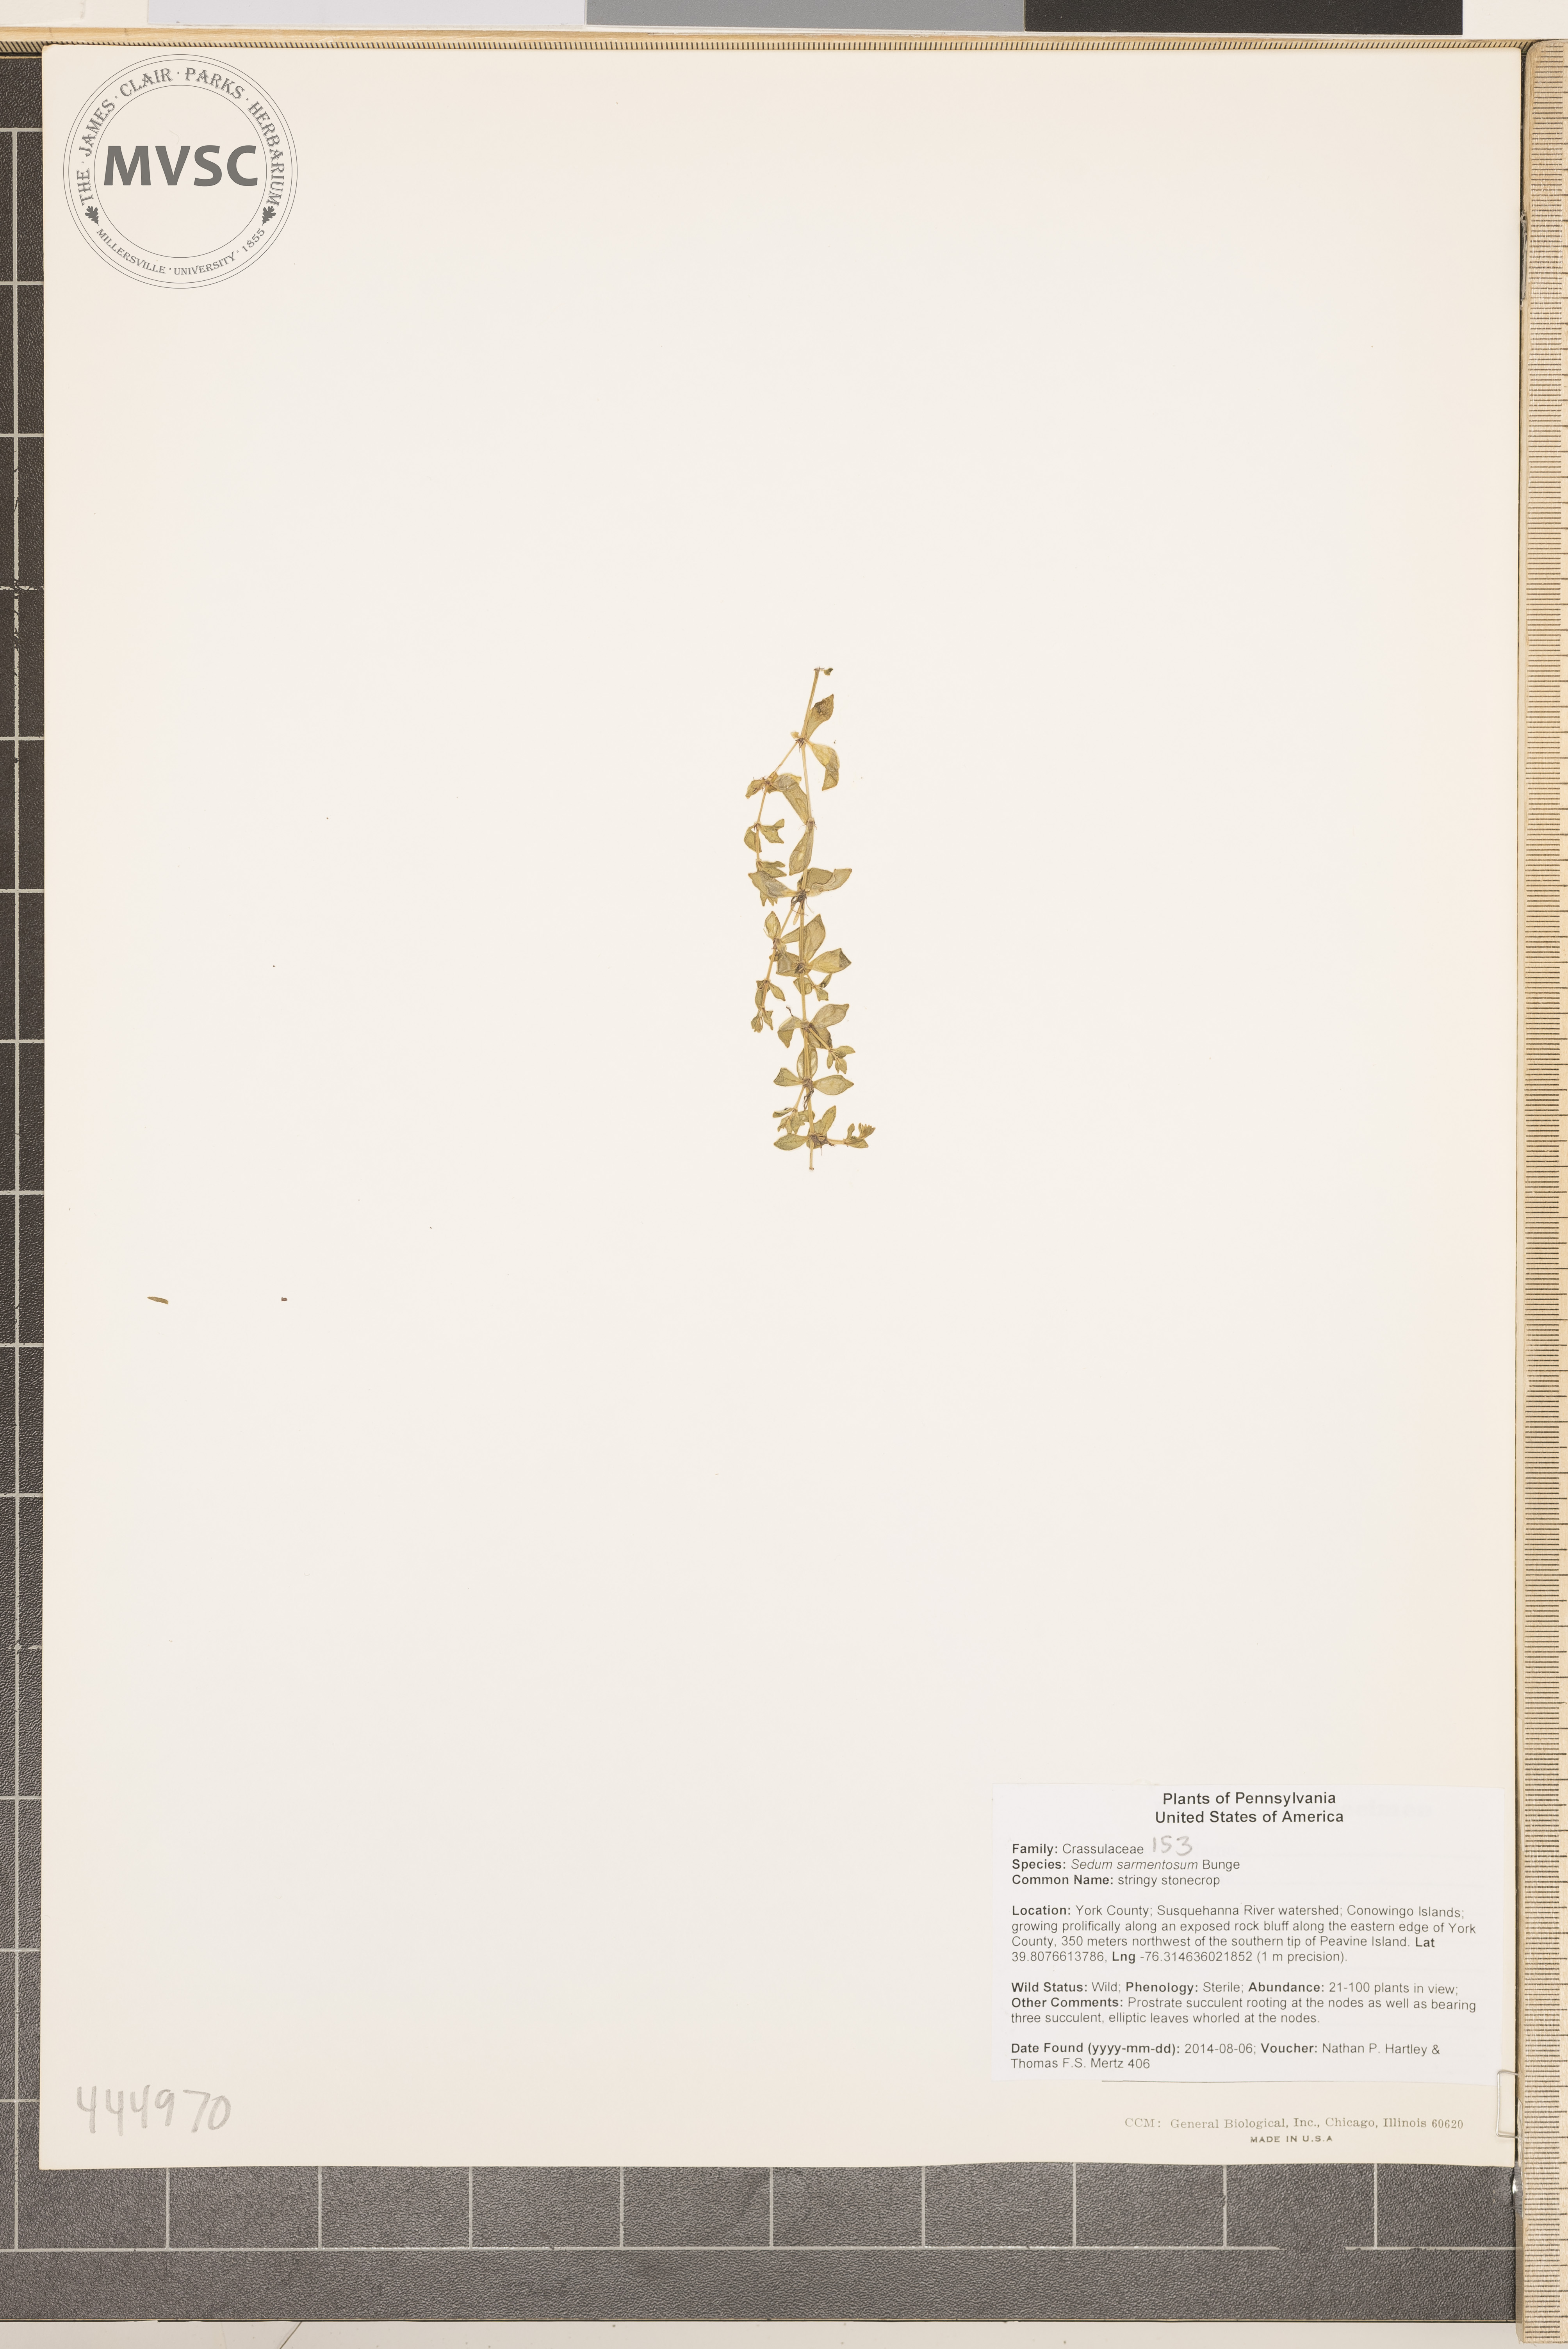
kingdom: Plantae
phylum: Tracheophyta
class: Magnoliopsida
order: Saxifragales
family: Crassulaceae
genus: Sedum
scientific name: Sedum sarmentosum
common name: stringy stonecrop
